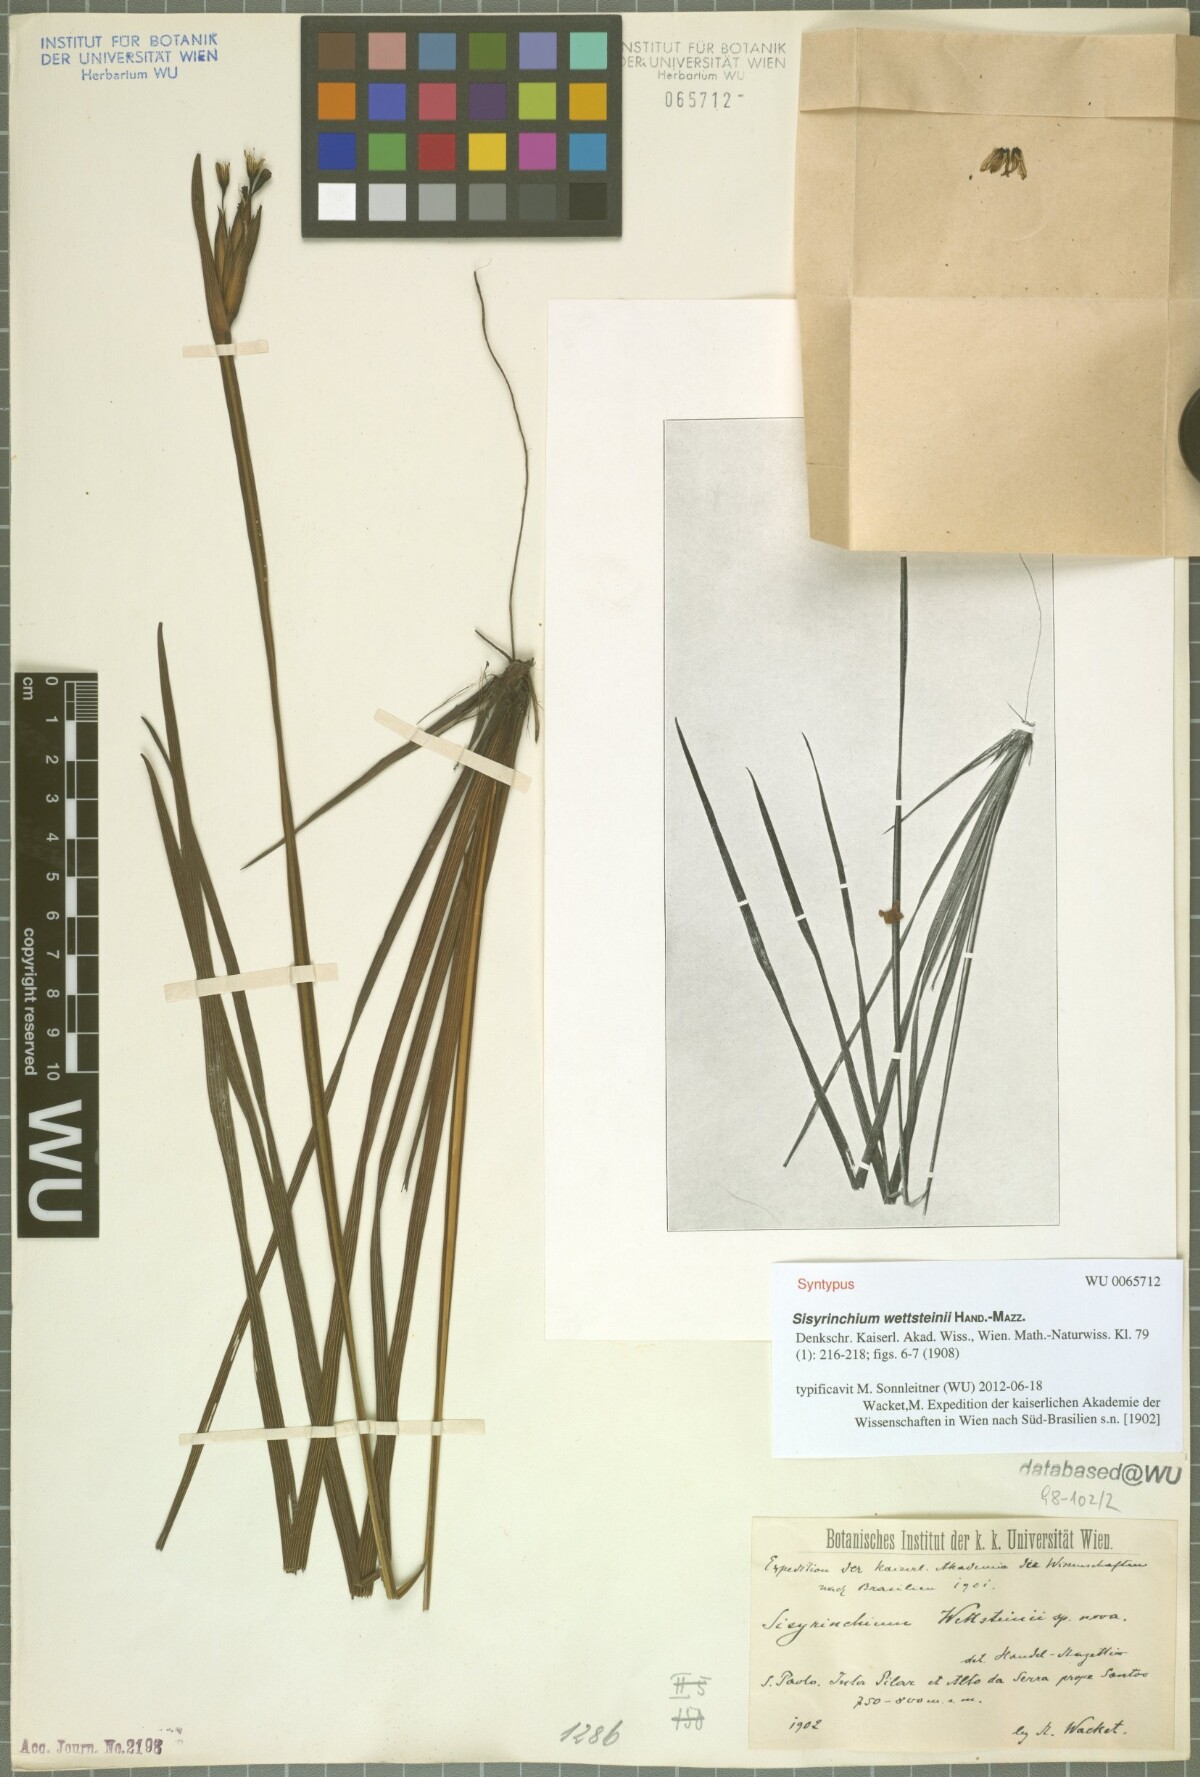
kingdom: Plantae
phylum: Tracheophyta
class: Liliopsida
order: Asparagales
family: Iridaceae
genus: Sisyrinchium
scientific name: Sisyrinchium wettsteinii
